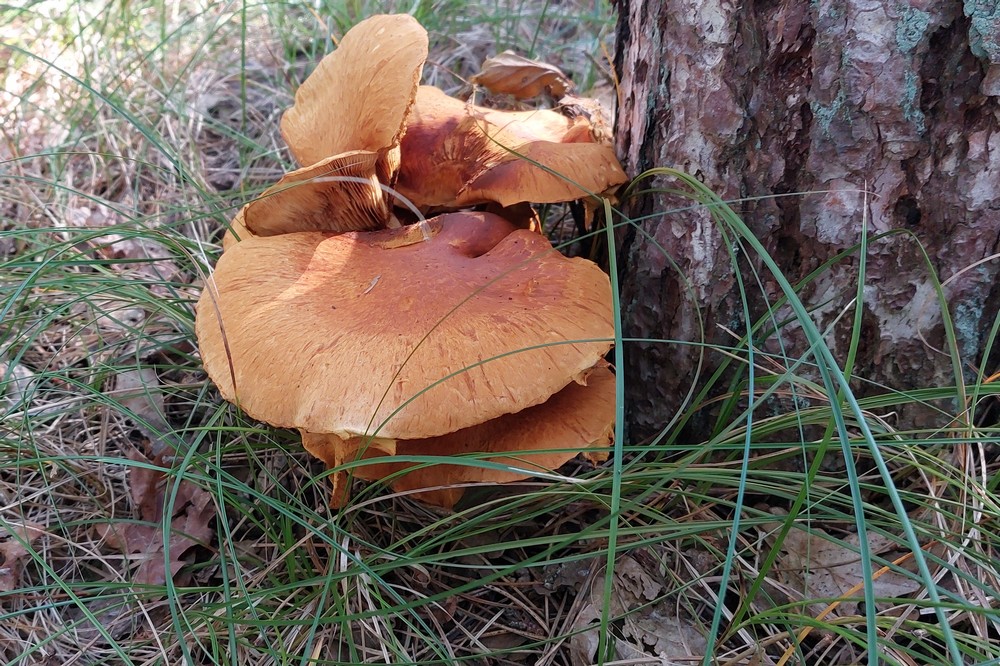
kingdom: Fungi
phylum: Basidiomycota
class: Agaricomycetes
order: Agaricales
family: Hymenogastraceae
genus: Gymnopilus
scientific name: Gymnopilus spectabilis
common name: fibret flammehat
